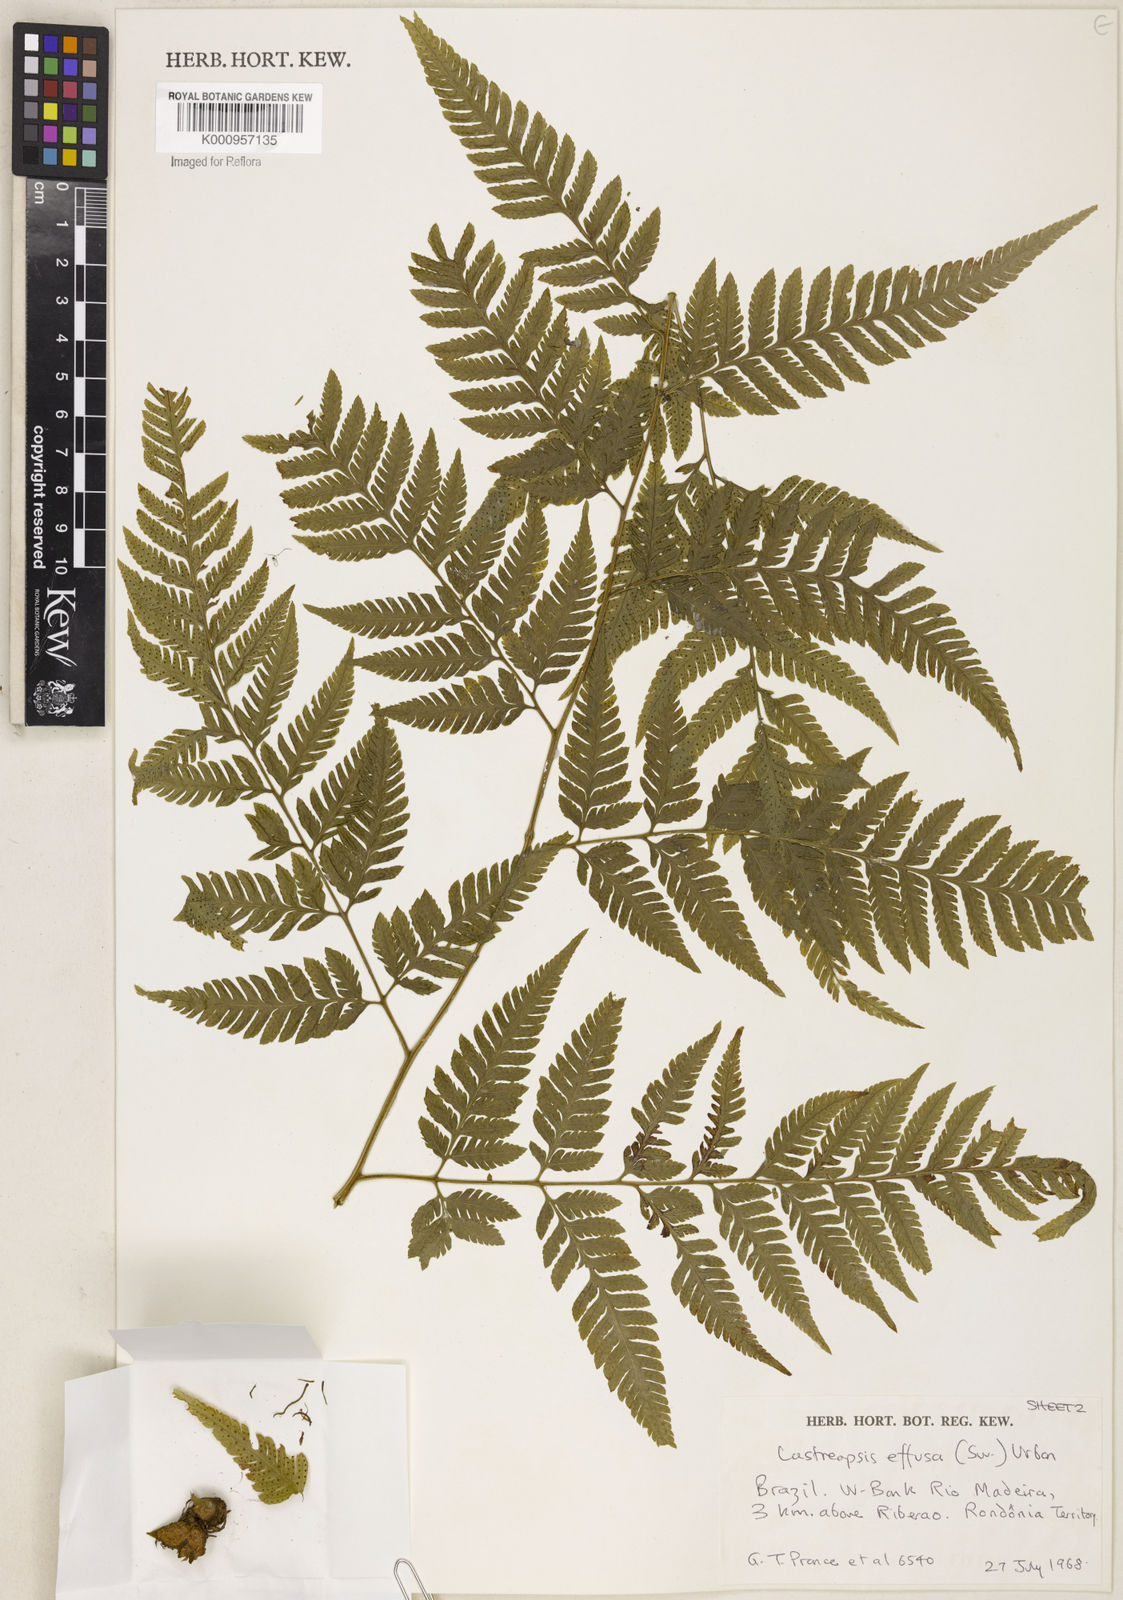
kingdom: Plantae
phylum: Tracheophyta
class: Polypodiopsida
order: Polypodiales
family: Dryopteridaceae
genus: Parapolystichum
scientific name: Parapolystichum effusum
